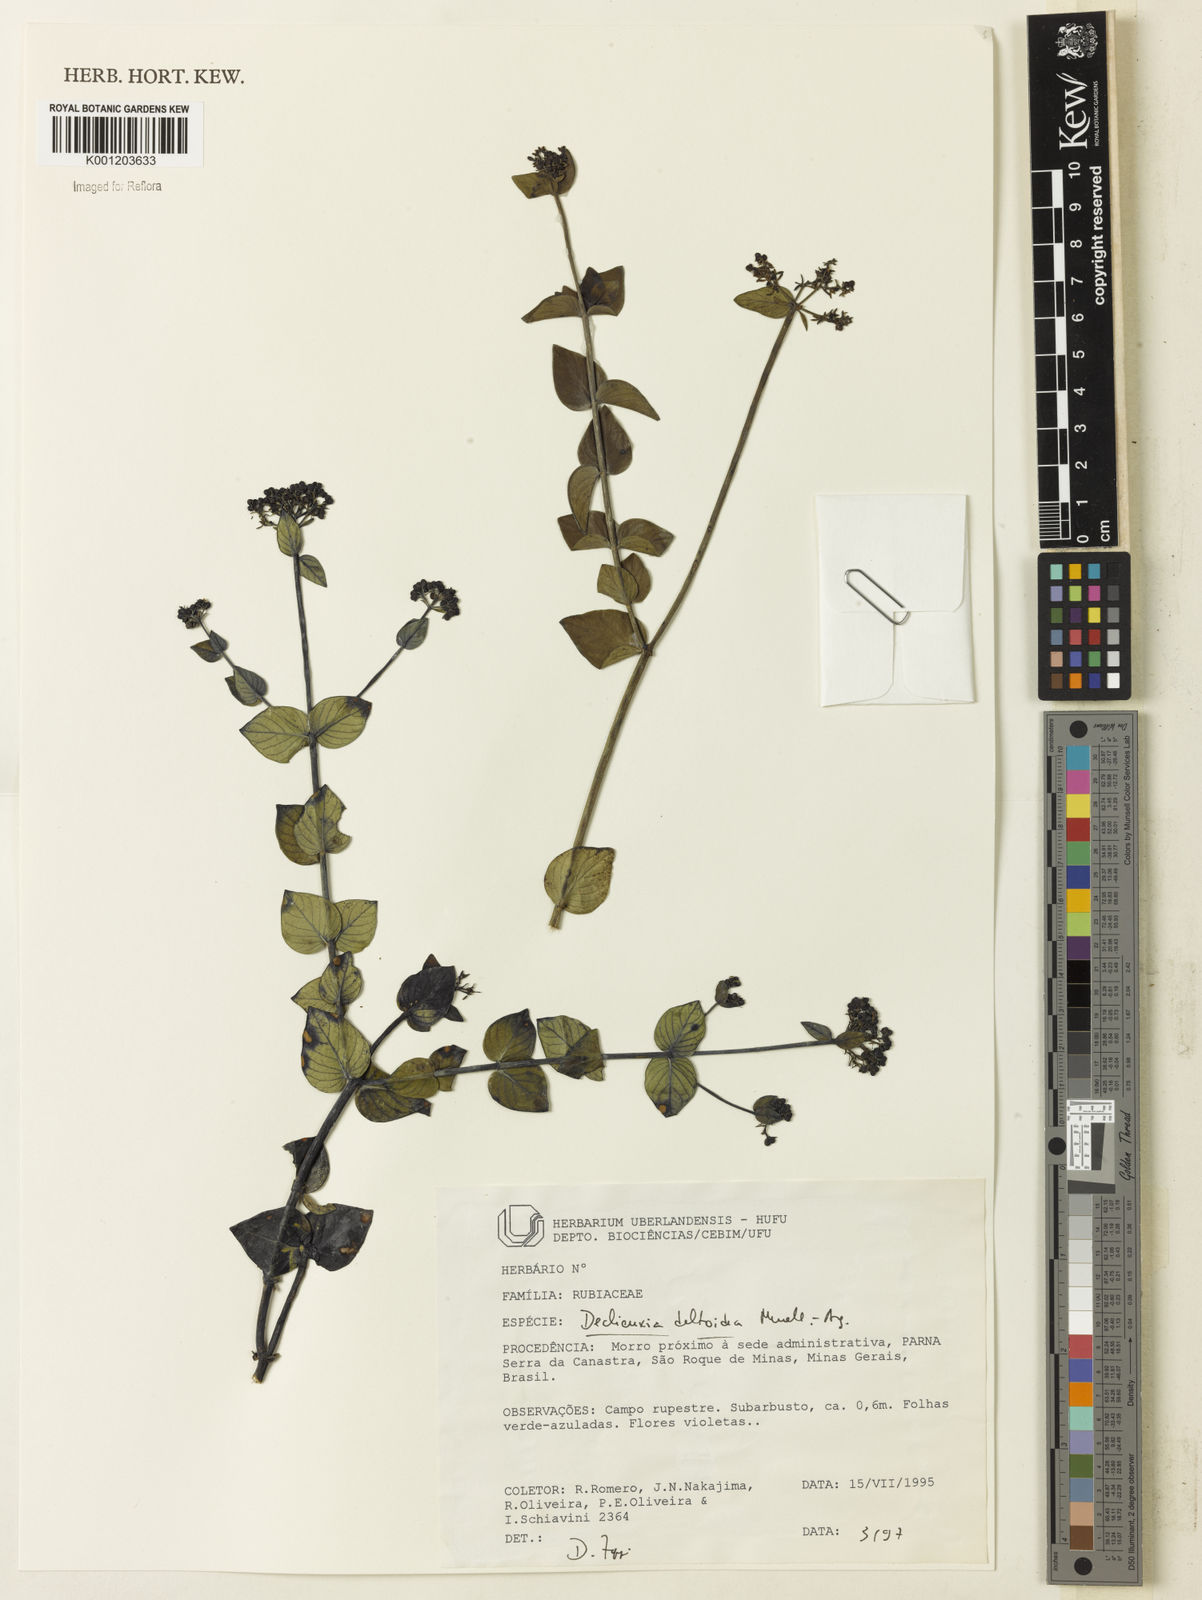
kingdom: Plantae
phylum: Tracheophyta
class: Magnoliopsida
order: Gentianales
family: Rubiaceae
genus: Declieuxia
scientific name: Declieuxia
